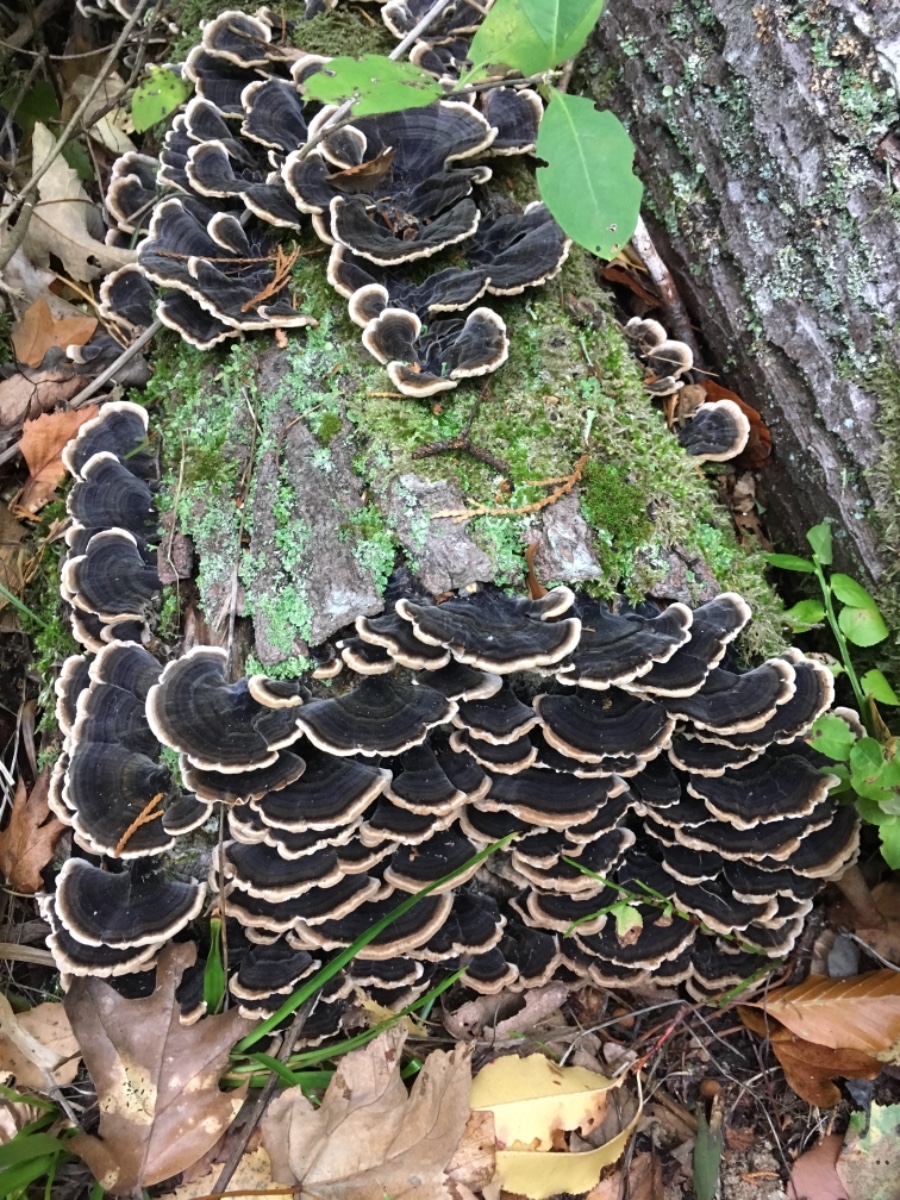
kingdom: Fungi
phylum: Basidiomycota
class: Agaricomycetes
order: Polyporales
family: Polyporaceae
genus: Trametes
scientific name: Trametes versicolor
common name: broget læderporesvamp
